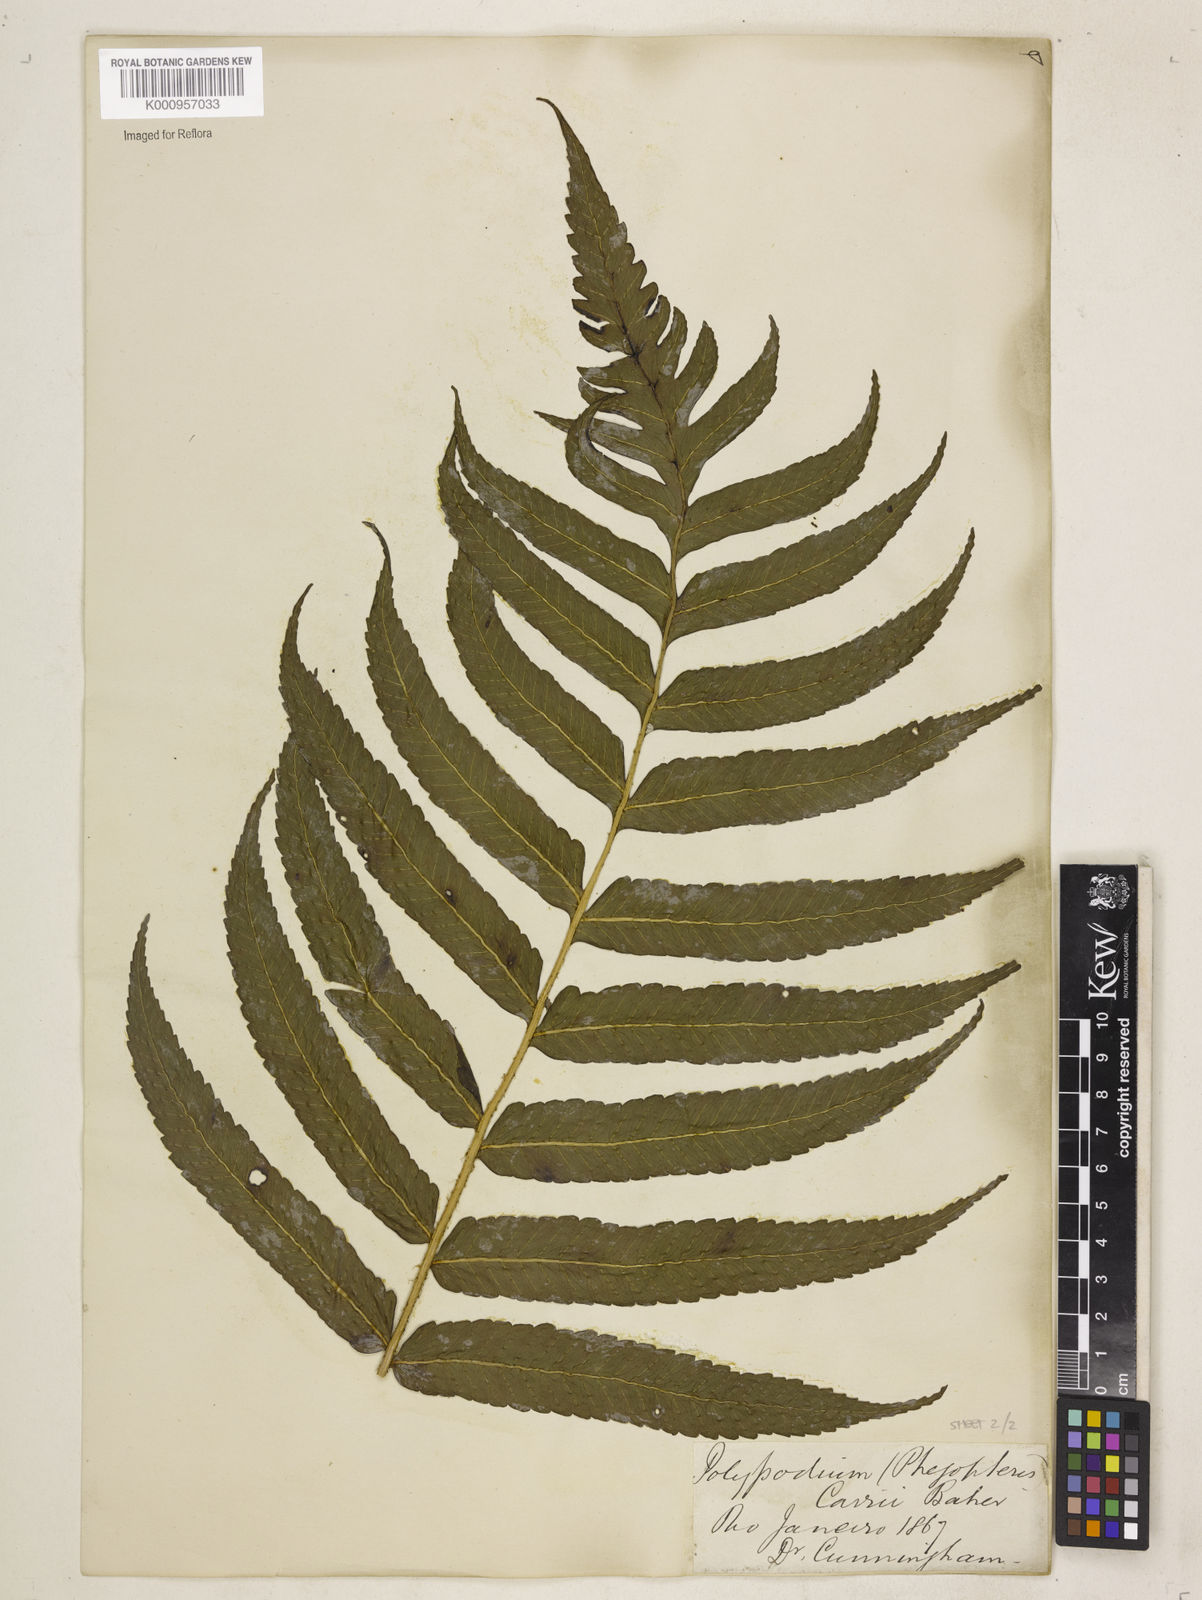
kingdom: Plantae
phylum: Tracheophyta
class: Polypodiopsida
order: Polypodiales
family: Dryopteridaceae
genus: Stigmatopteris
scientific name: Stigmatopteris
